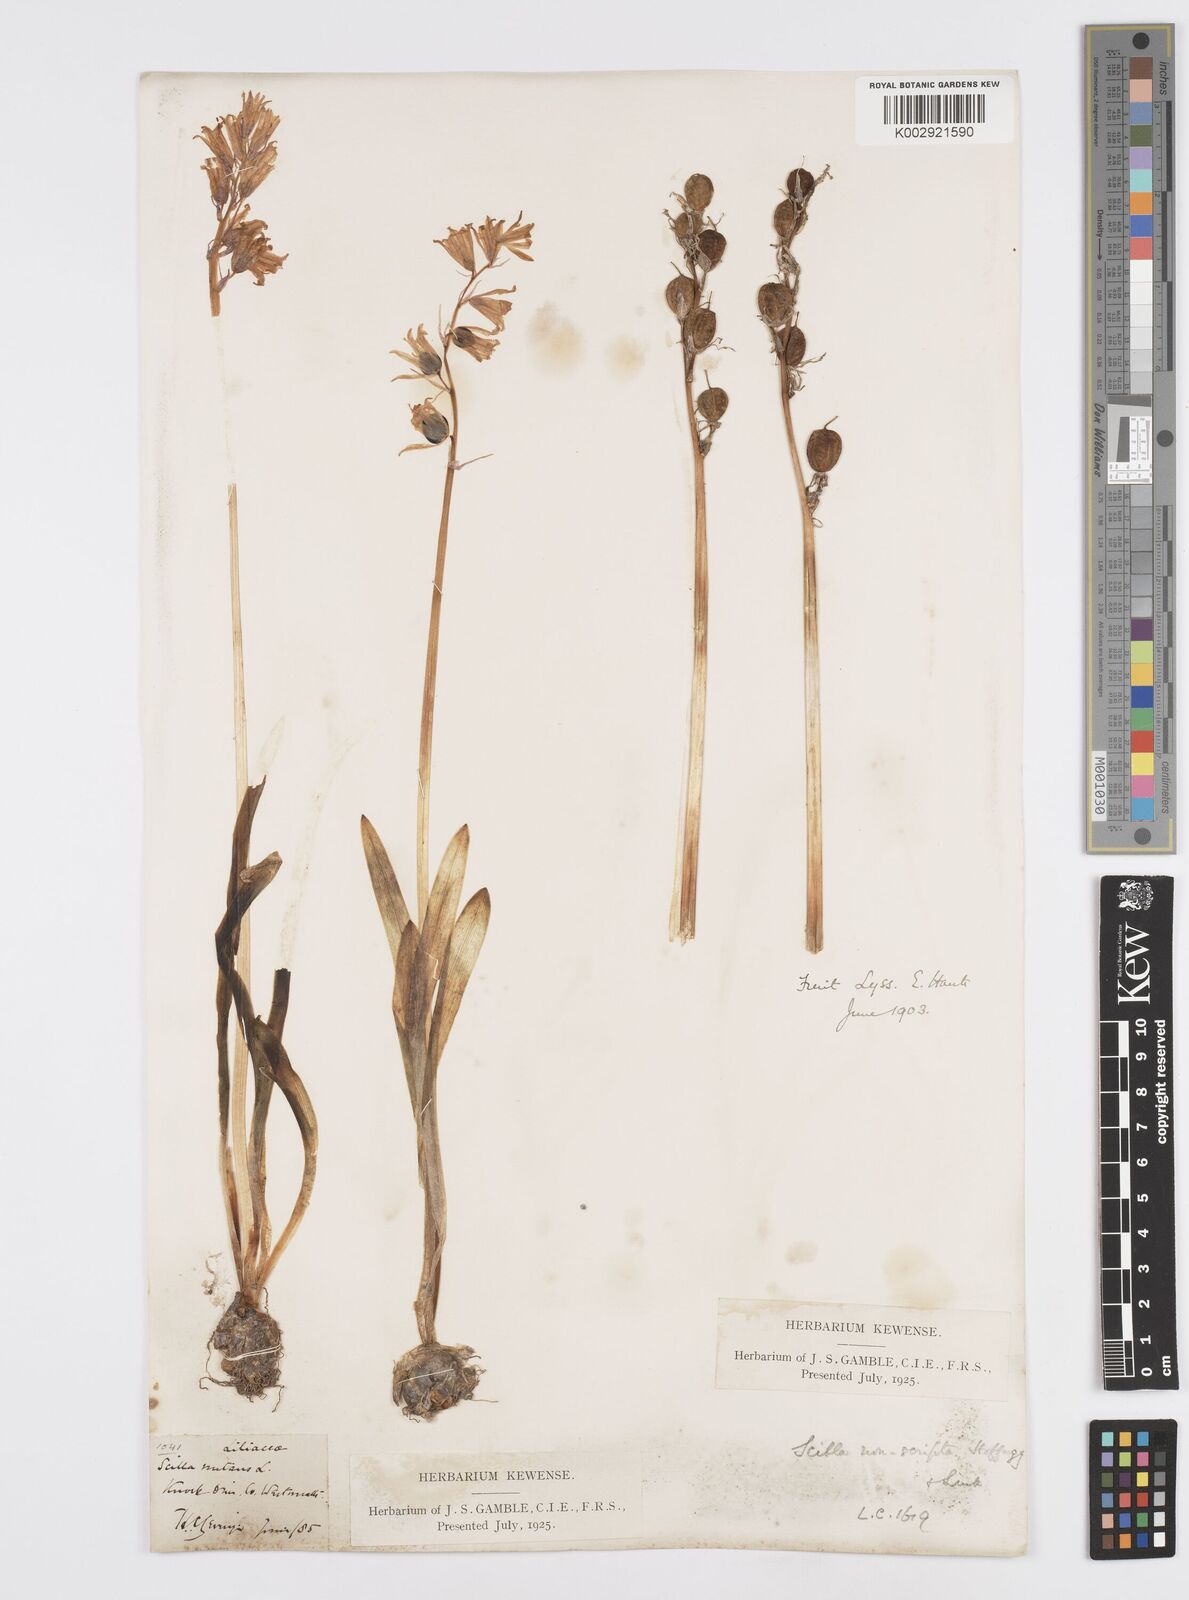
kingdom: Plantae
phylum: Tracheophyta
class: Liliopsida
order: Asparagales
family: Asparagaceae
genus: Hyacinthoides
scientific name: Hyacinthoides non-scripta
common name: Bluebell
